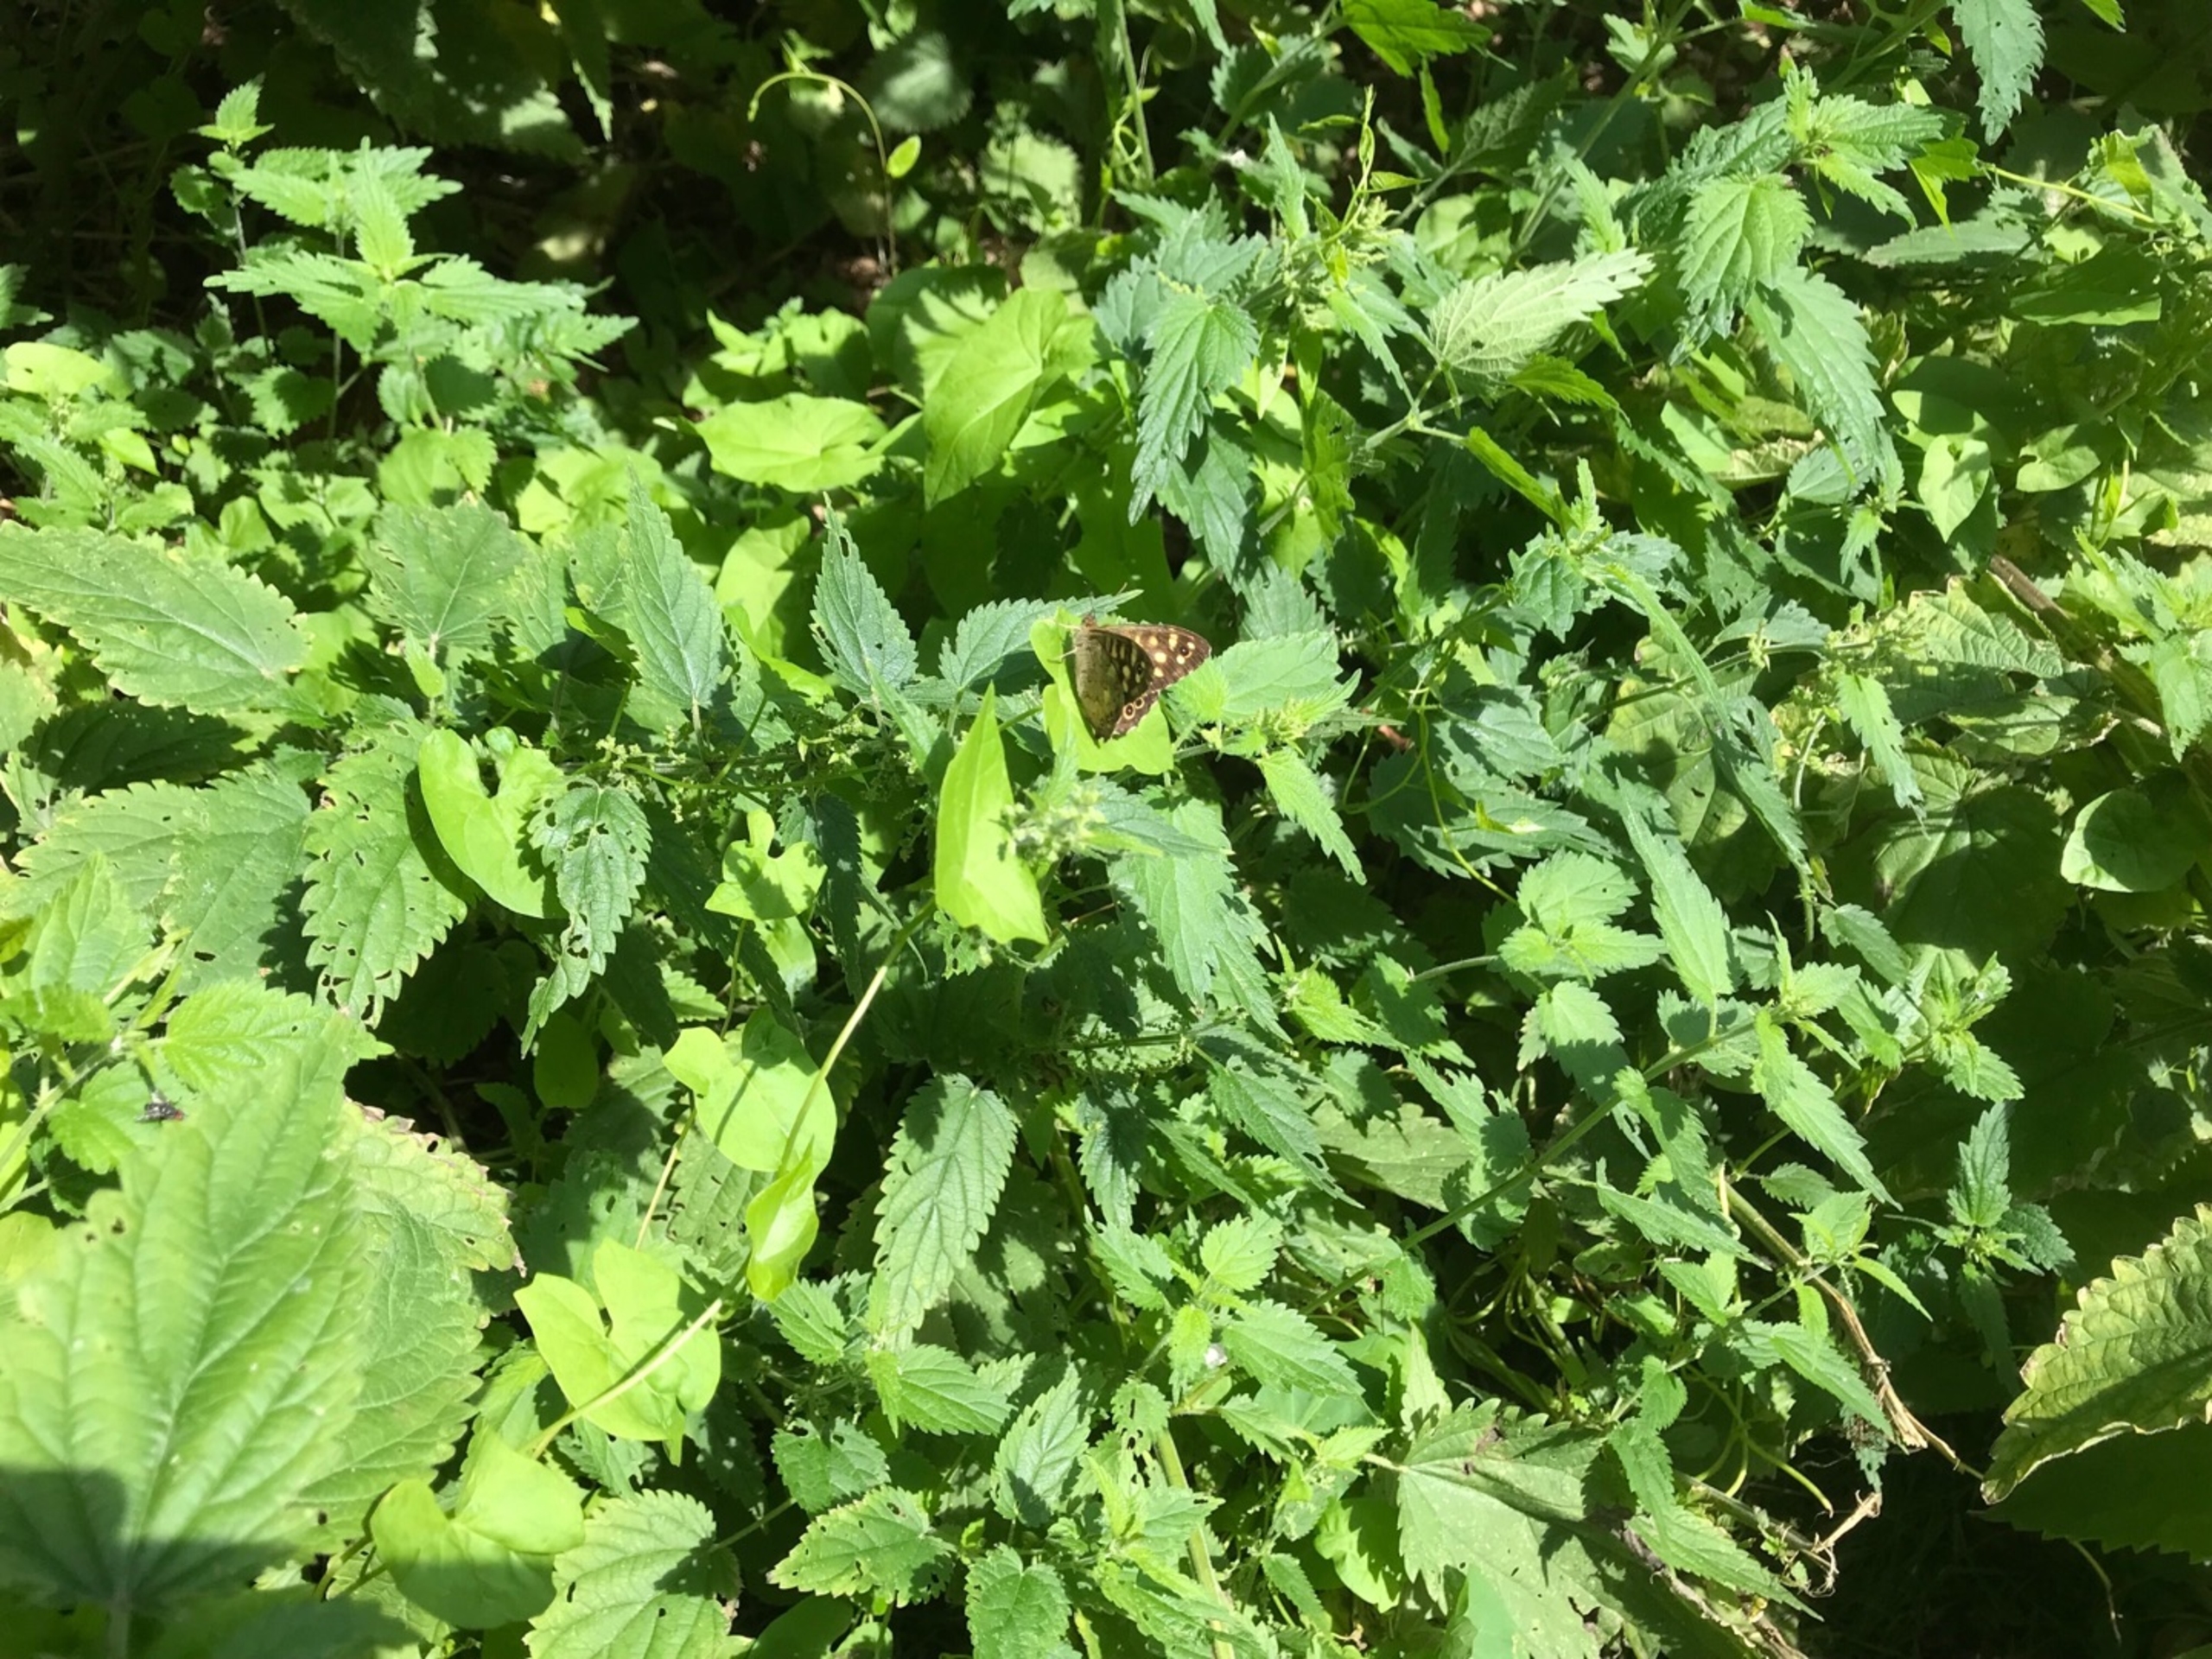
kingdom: Animalia
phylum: Arthropoda
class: Insecta
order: Lepidoptera
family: Nymphalidae
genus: Pararge
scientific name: Pararge aegeria
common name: Skovrandøje
